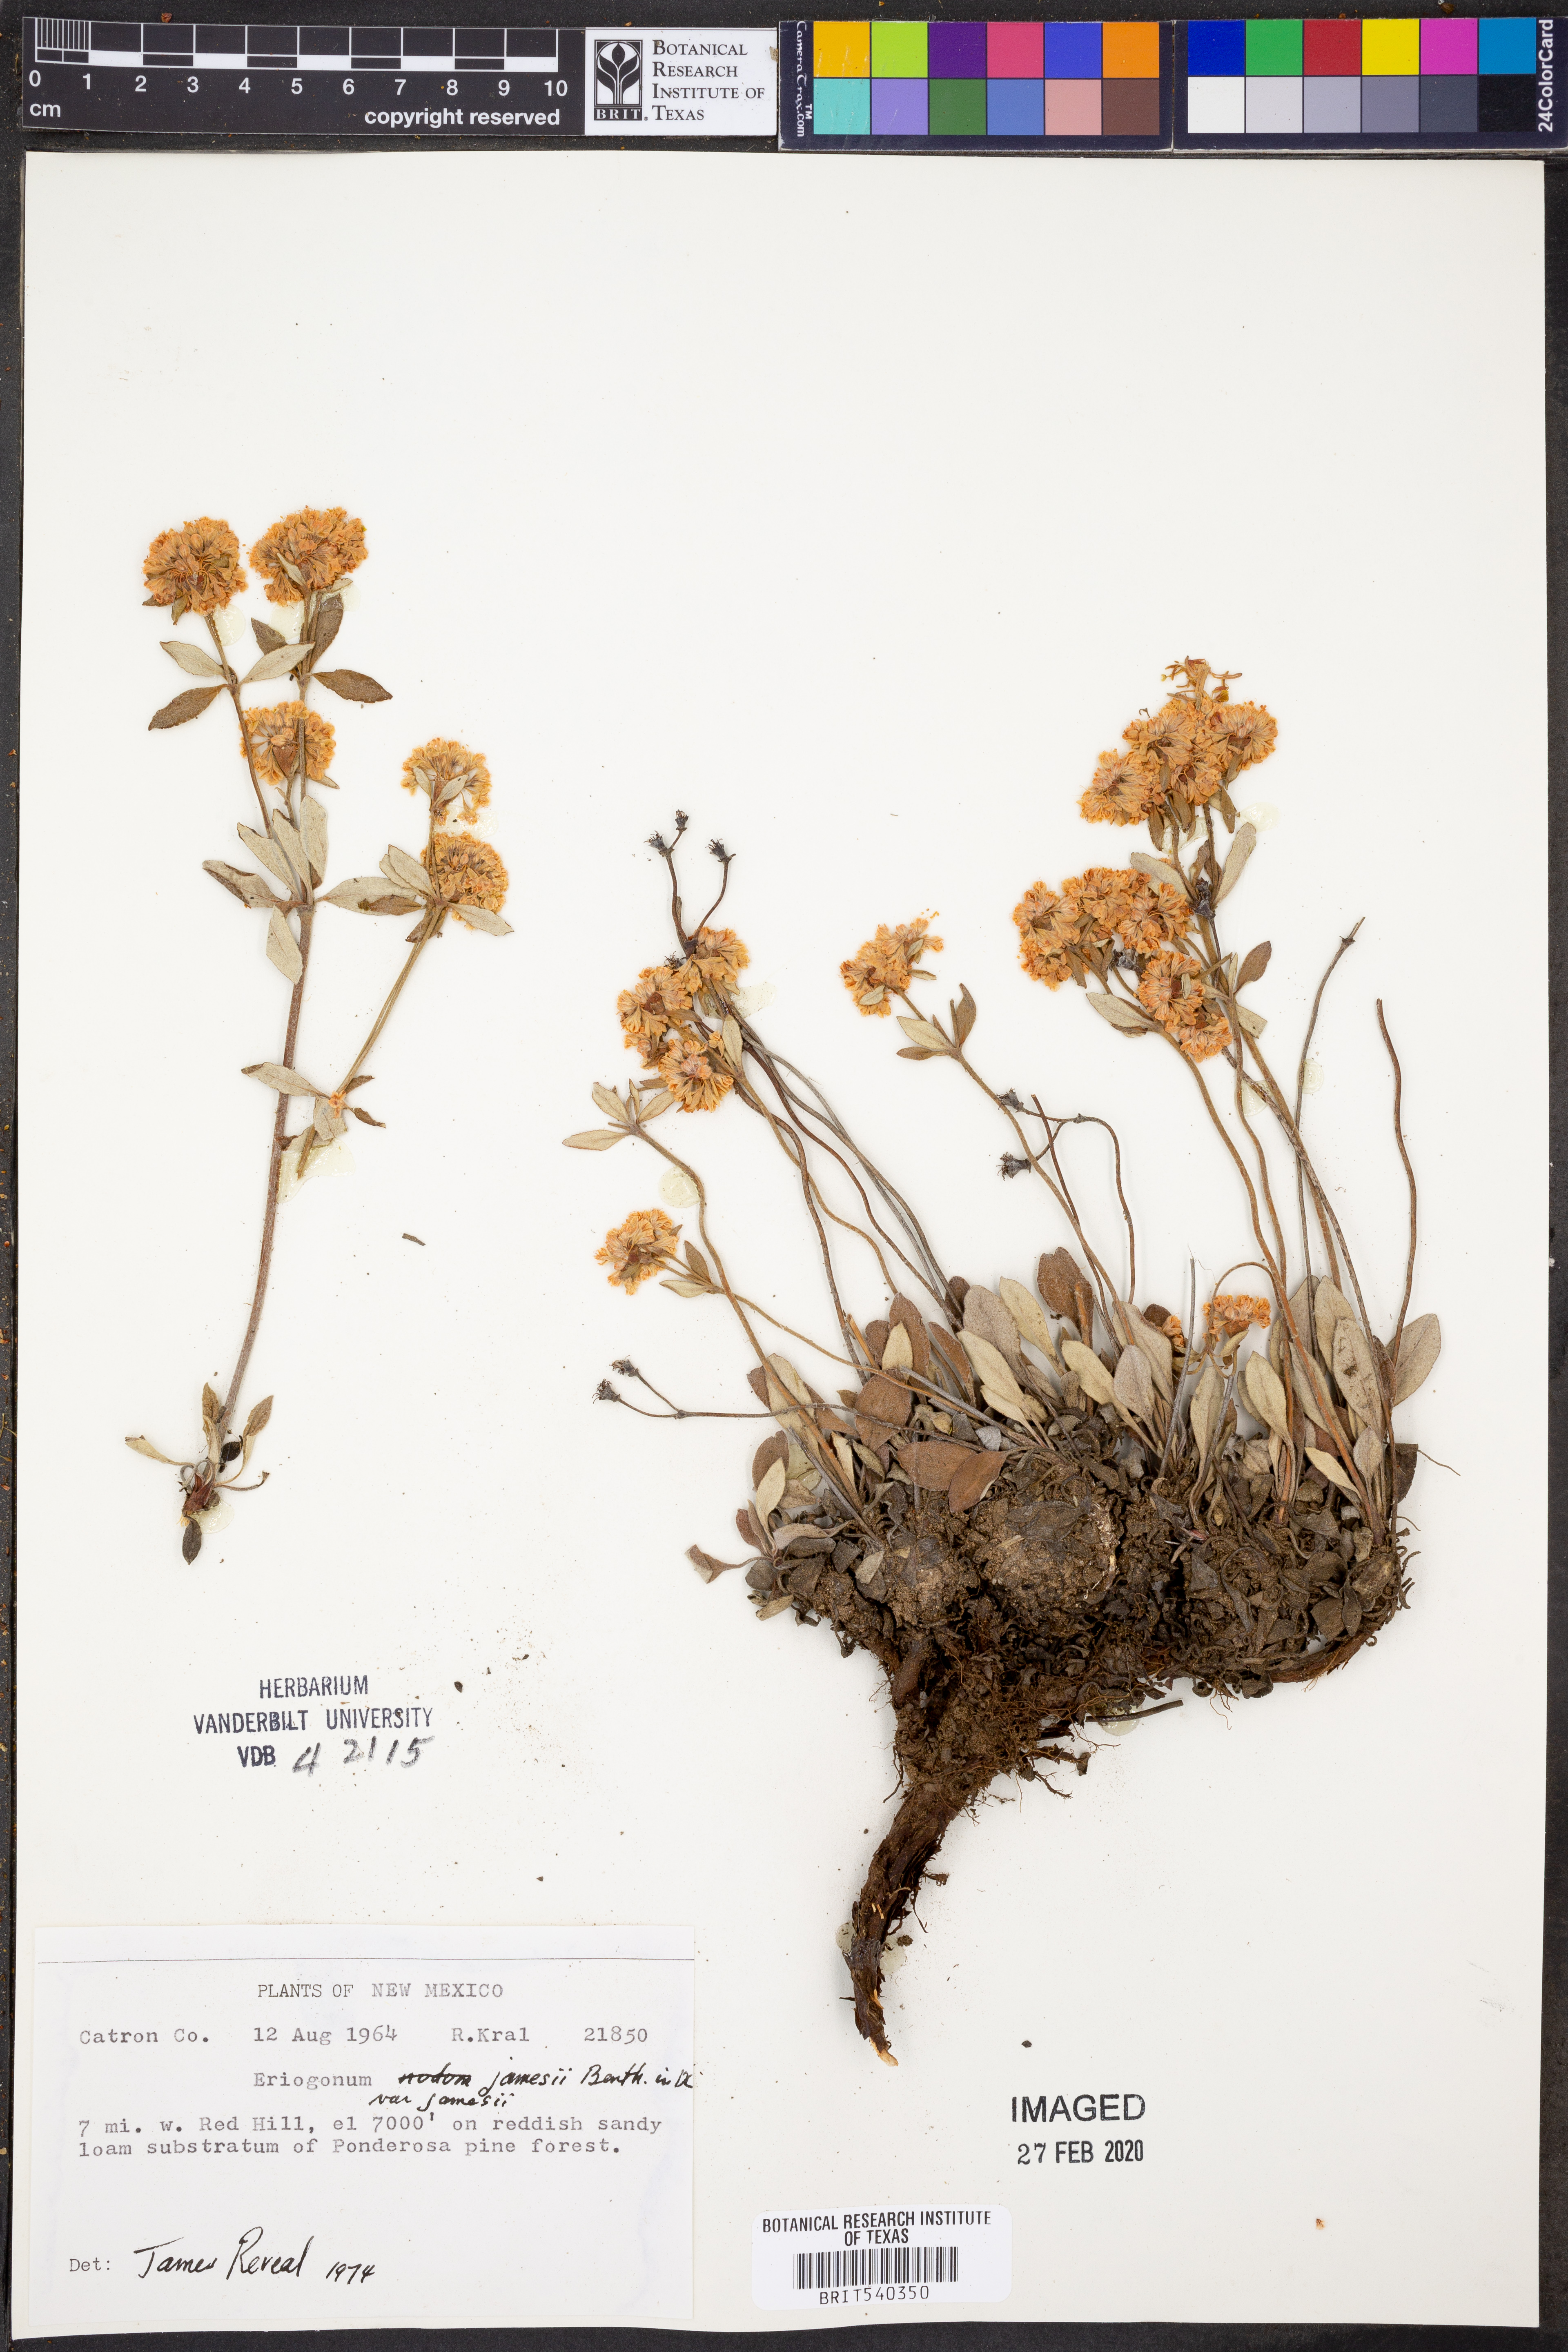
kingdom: Plantae
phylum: Tracheophyta
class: Magnoliopsida
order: Caryophyllales
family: Polygonaceae
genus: Eriogonum
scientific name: Eriogonum jamesii
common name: Antelope-sage
